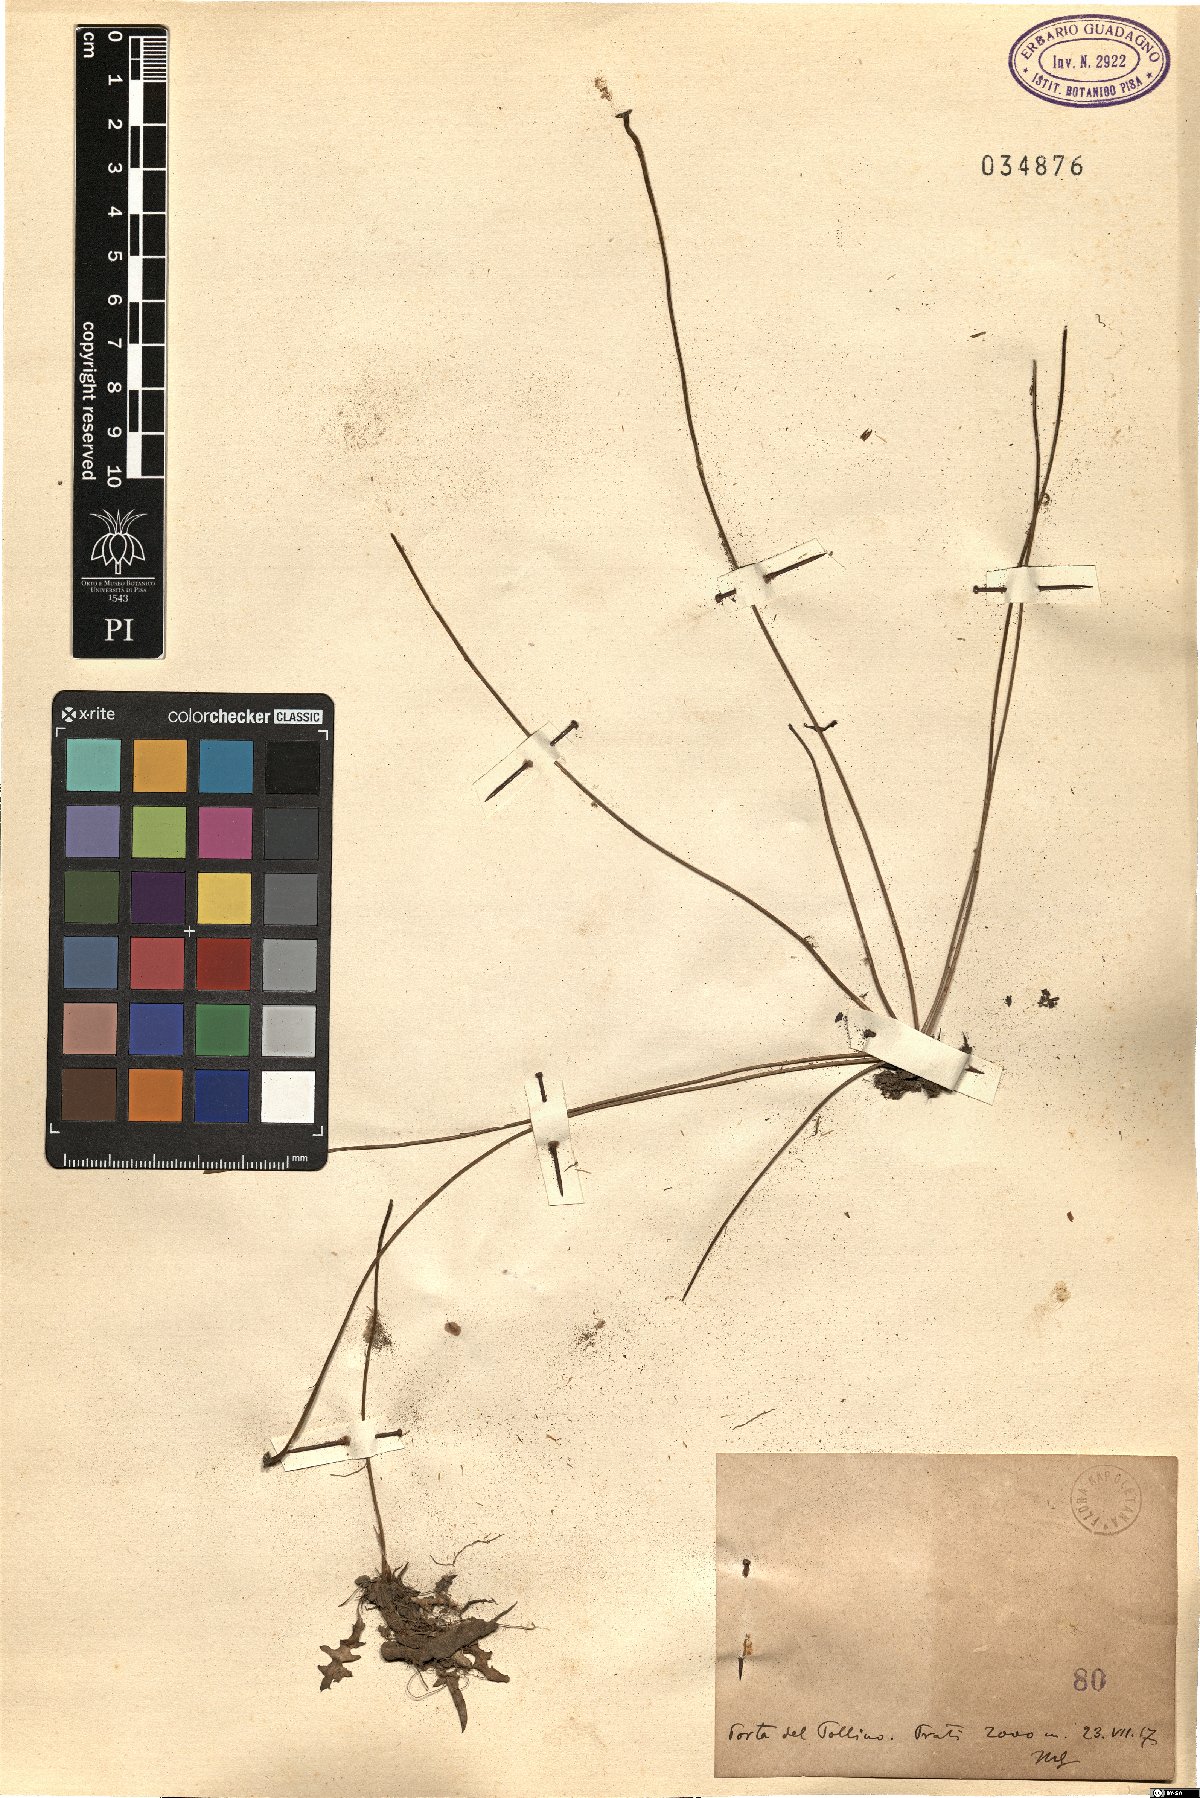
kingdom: Plantae
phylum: Tracheophyta
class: Magnoliopsida
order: Asterales
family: Asteraceae
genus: Hypochaeris
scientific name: Hypochaeris
